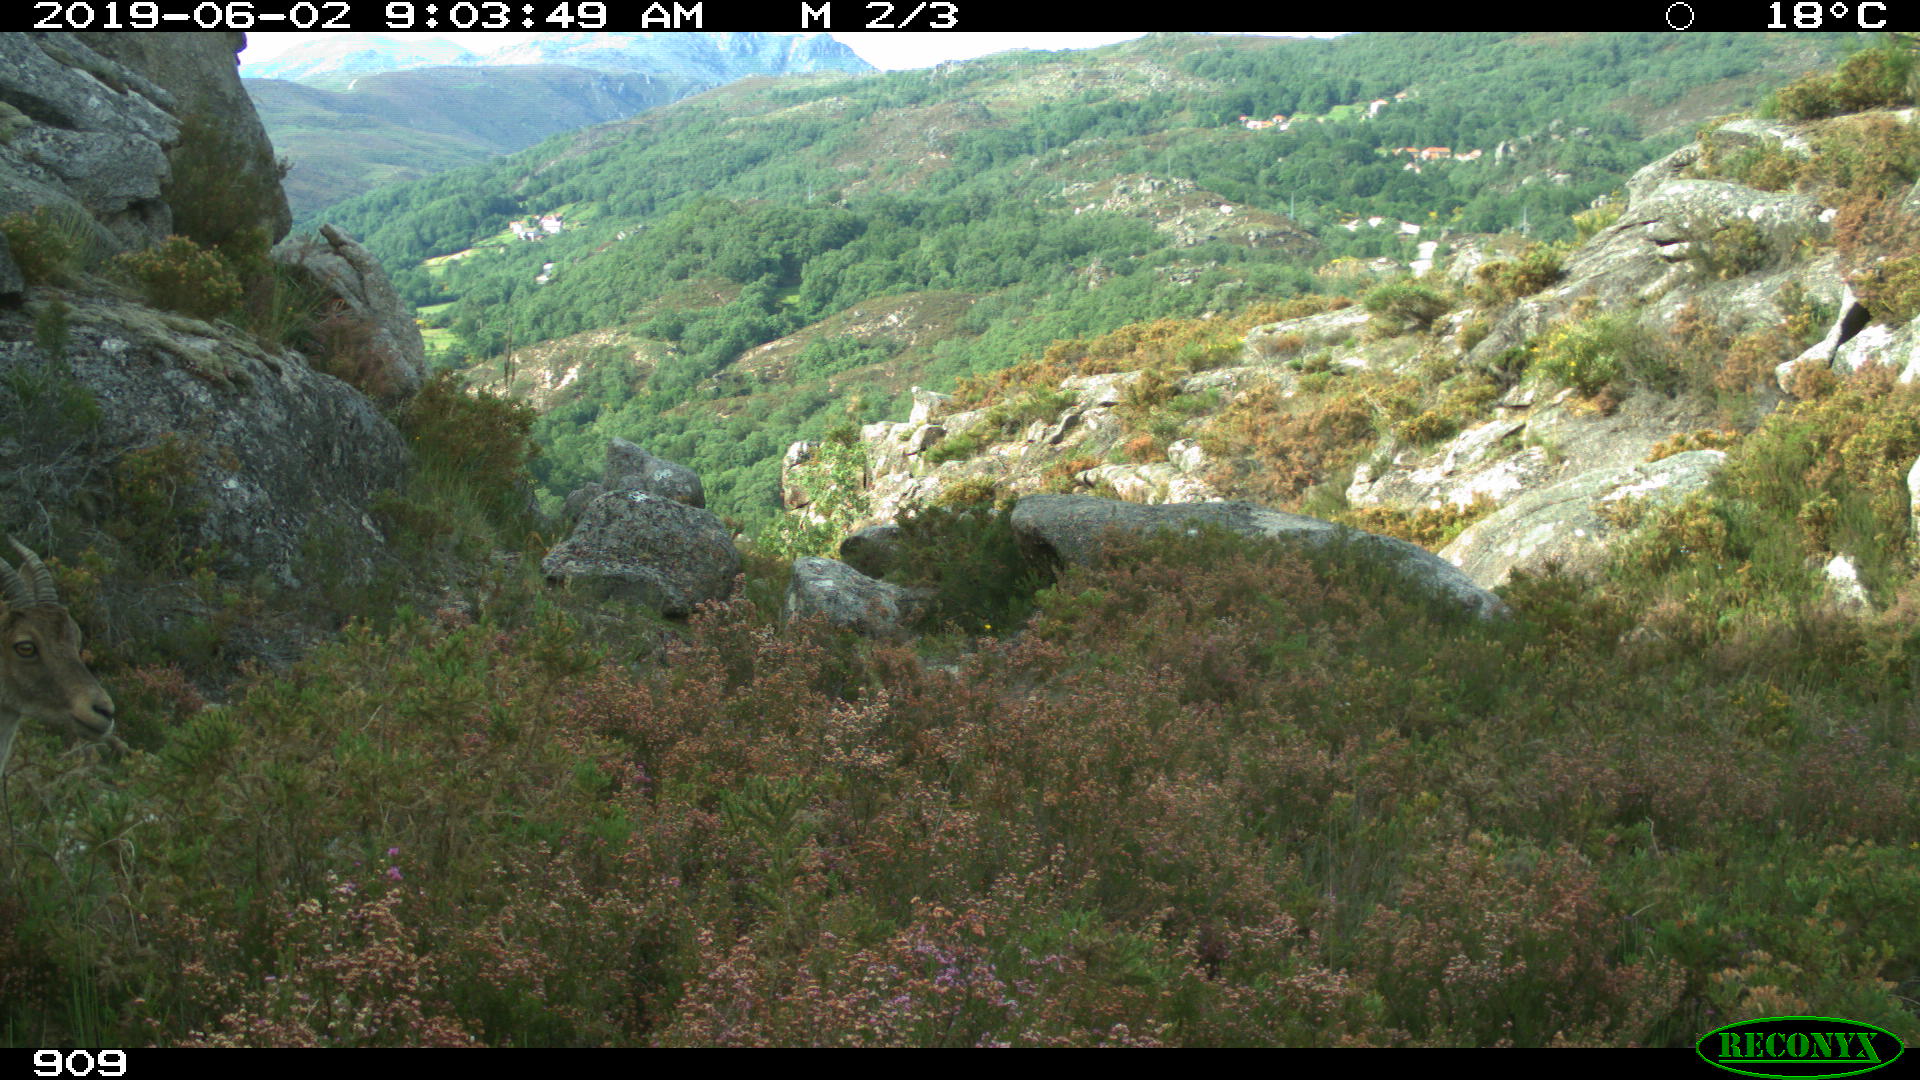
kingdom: Animalia
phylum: Chordata
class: Mammalia
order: Artiodactyla
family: Bovidae
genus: Capra
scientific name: Capra pyrenaica
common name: Spanish ibex
